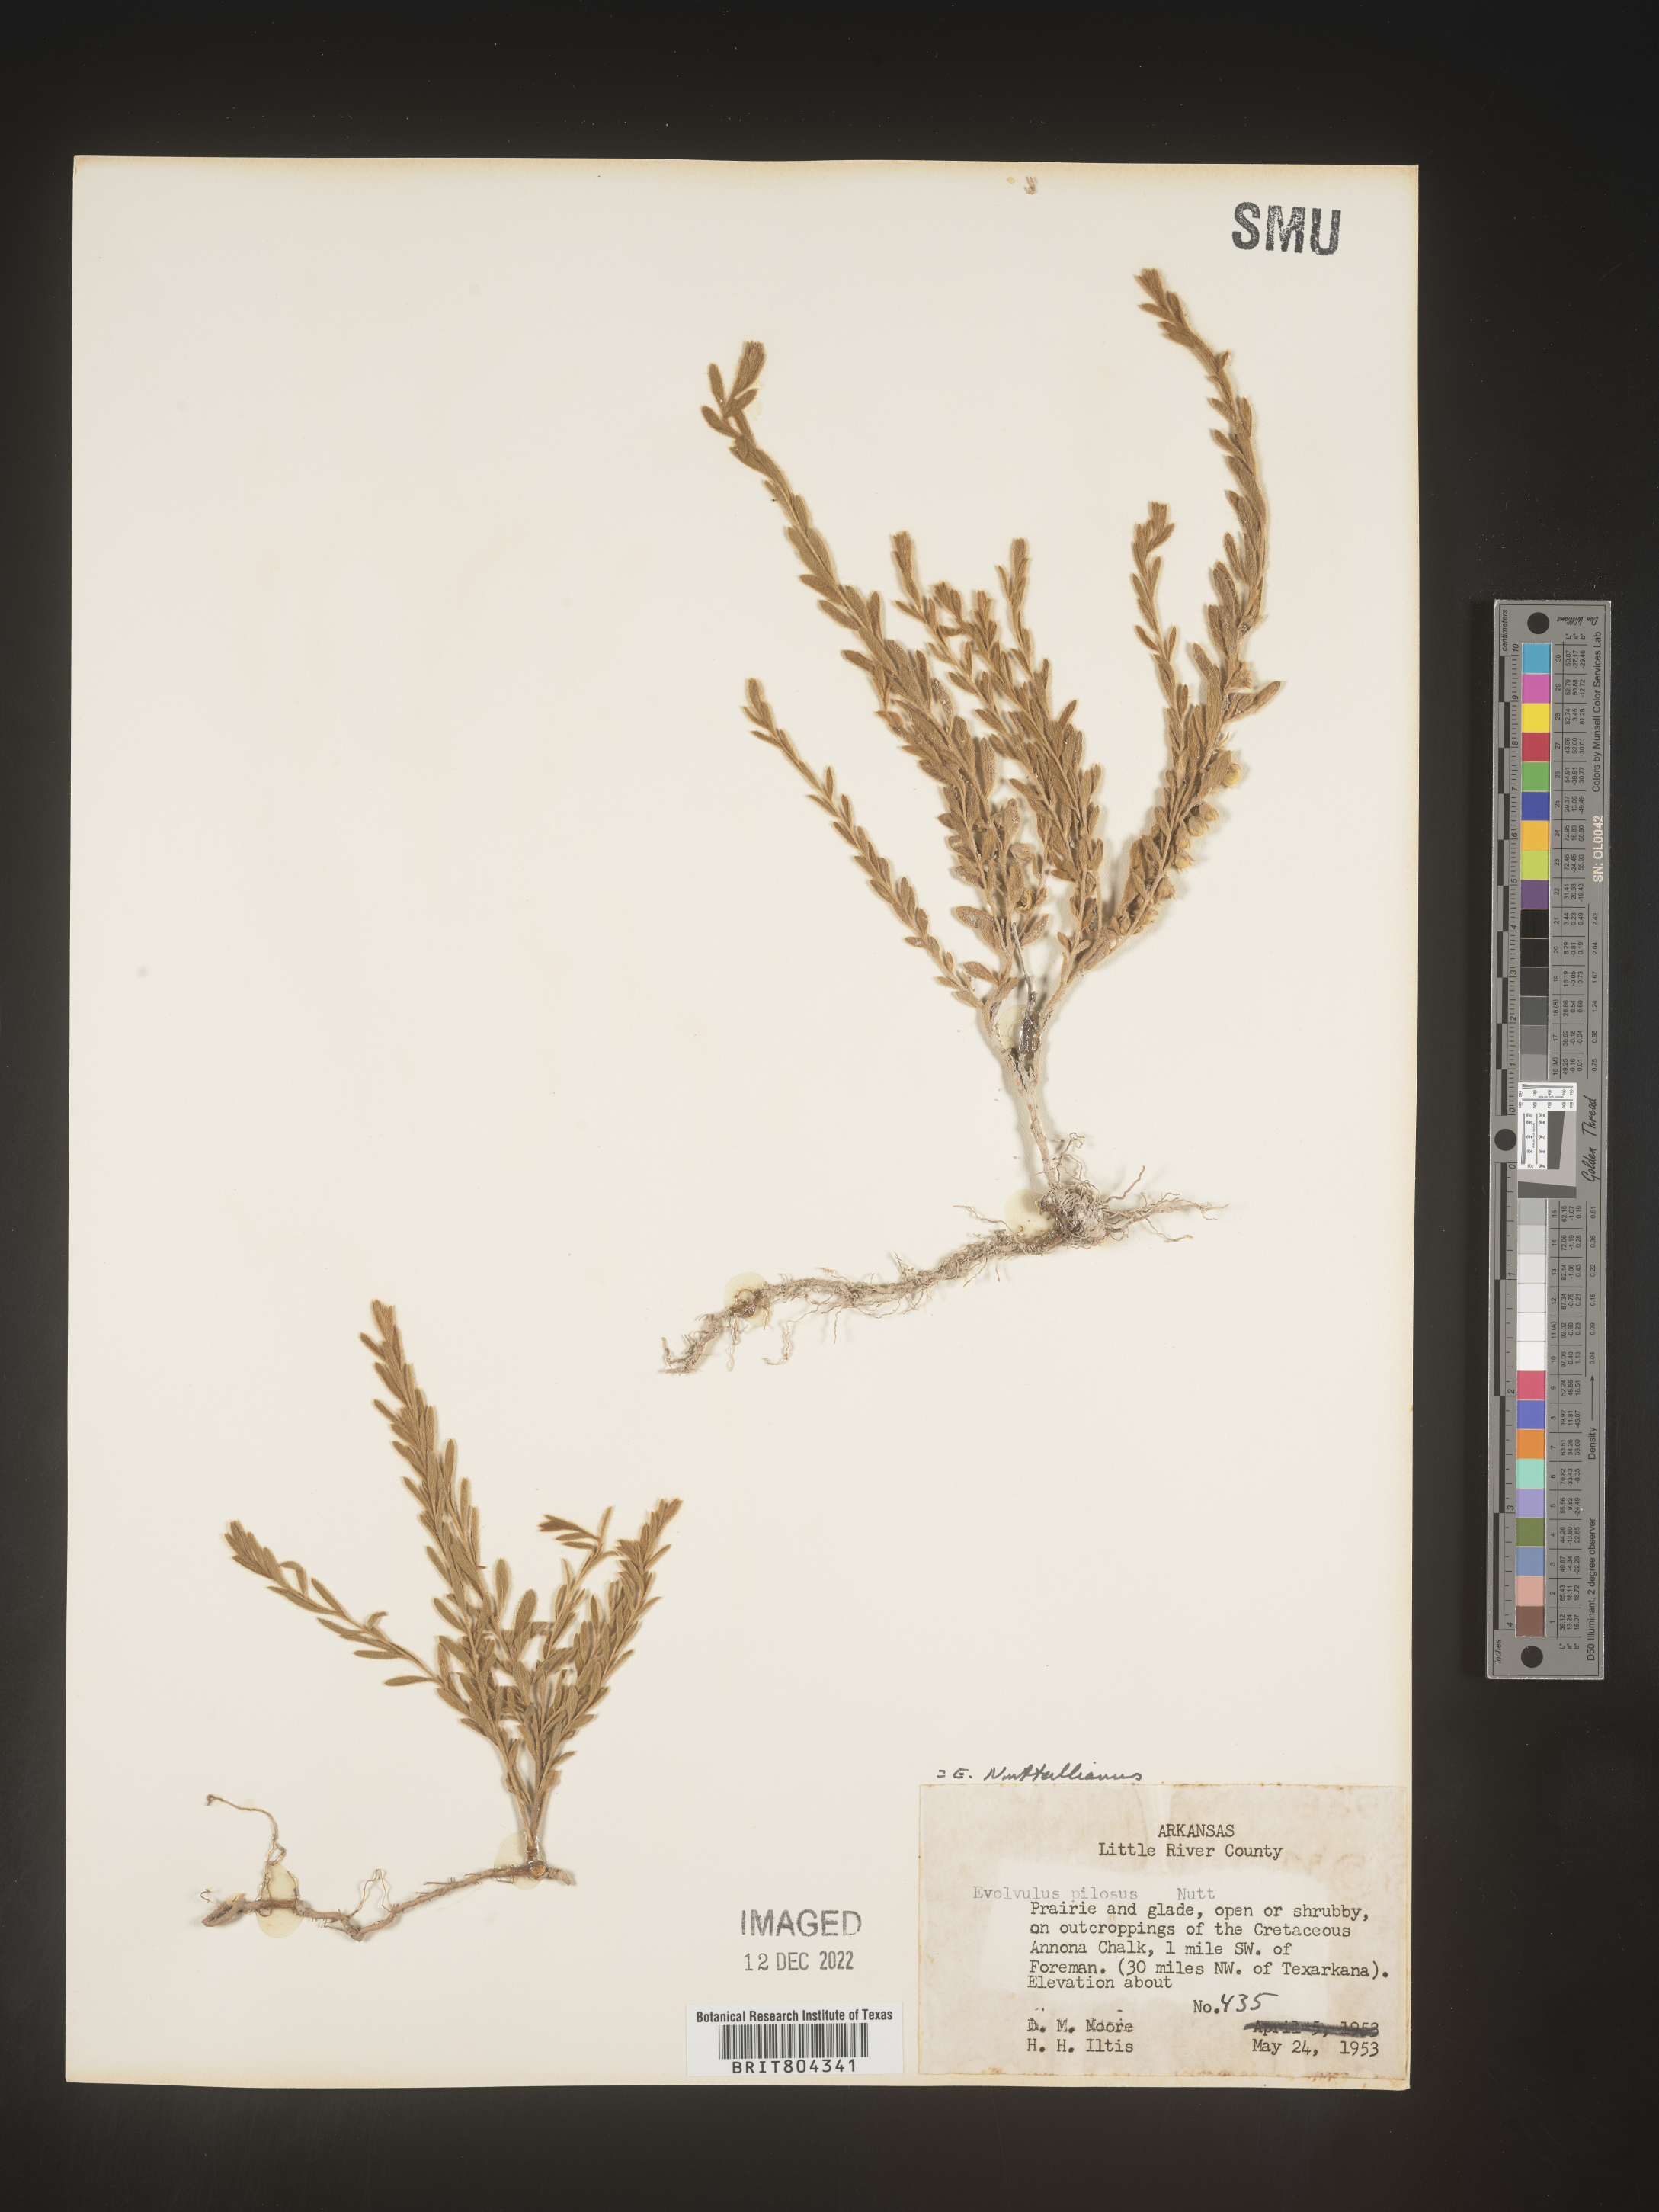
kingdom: Plantae
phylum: Tracheophyta
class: Magnoliopsida
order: Solanales
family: Convolvulaceae
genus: Evolvulus
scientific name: Evolvulus nuttallianus
